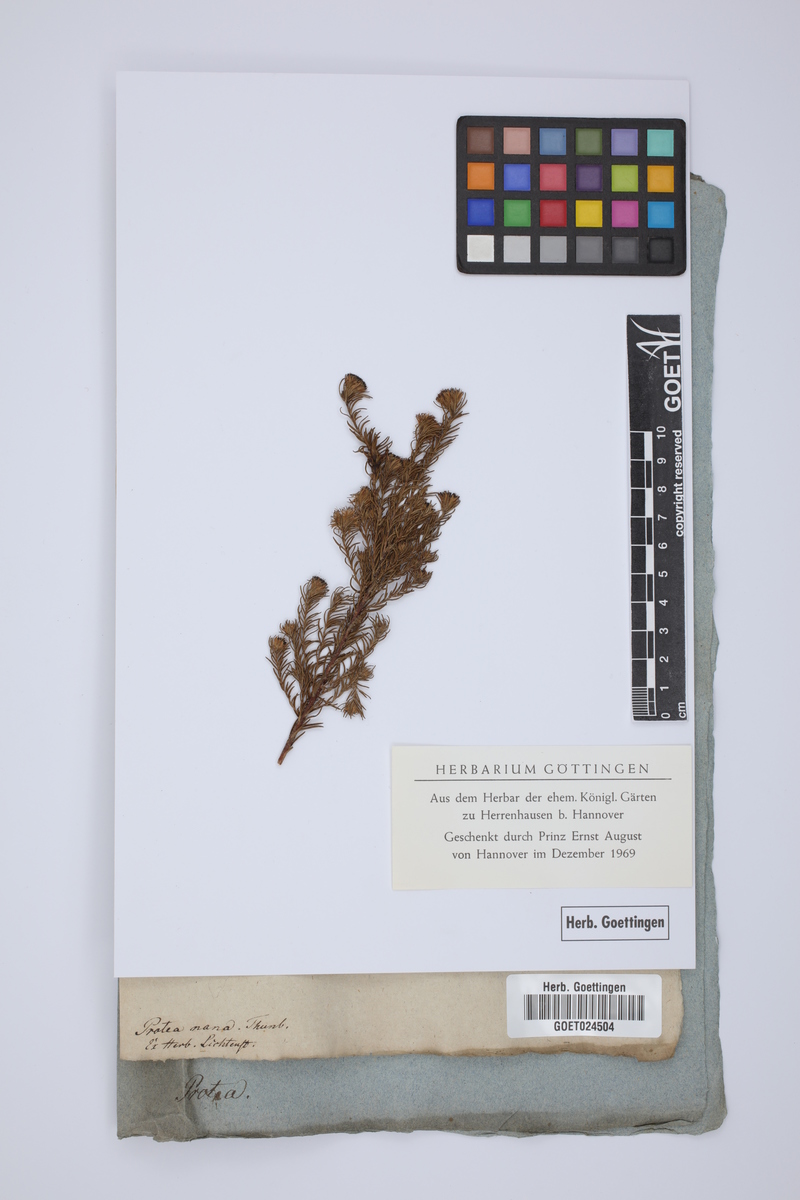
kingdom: Plantae
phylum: Tracheophyta
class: Magnoliopsida
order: Proteales
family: Proteaceae
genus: Protea
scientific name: Protea nana
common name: Mountain rose
